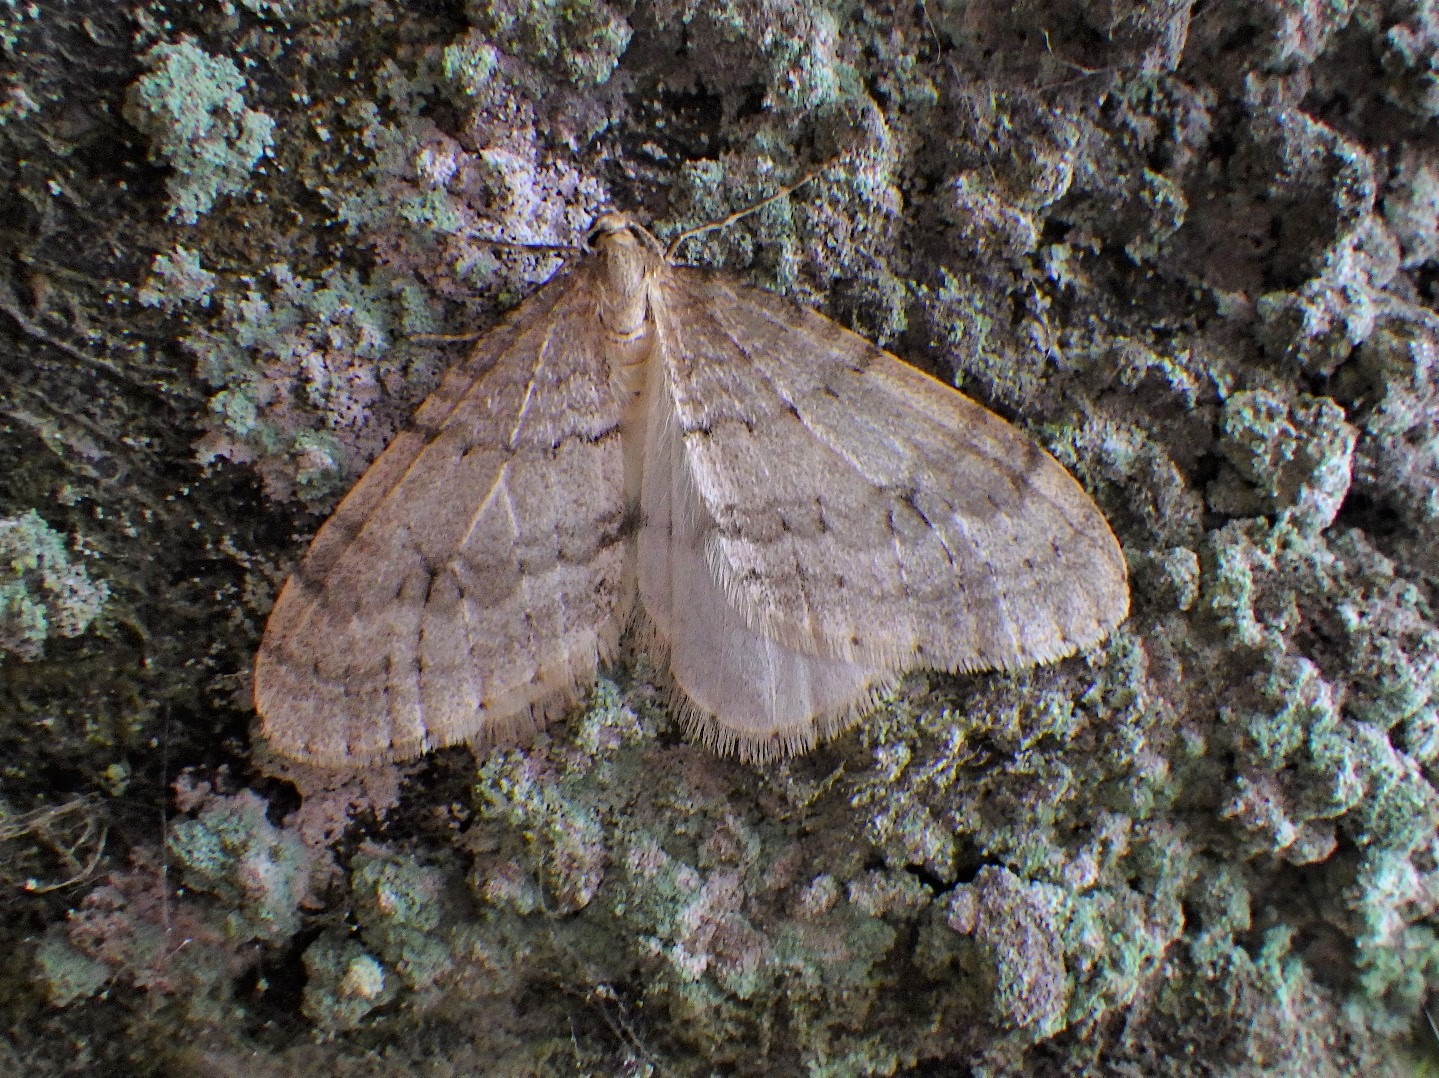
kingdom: Animalia
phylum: Arthropoda
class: Insecta
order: Lepidoptera
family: Geometridae
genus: Operophtera
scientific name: Operophtera brumata
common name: Lille frostmåler
